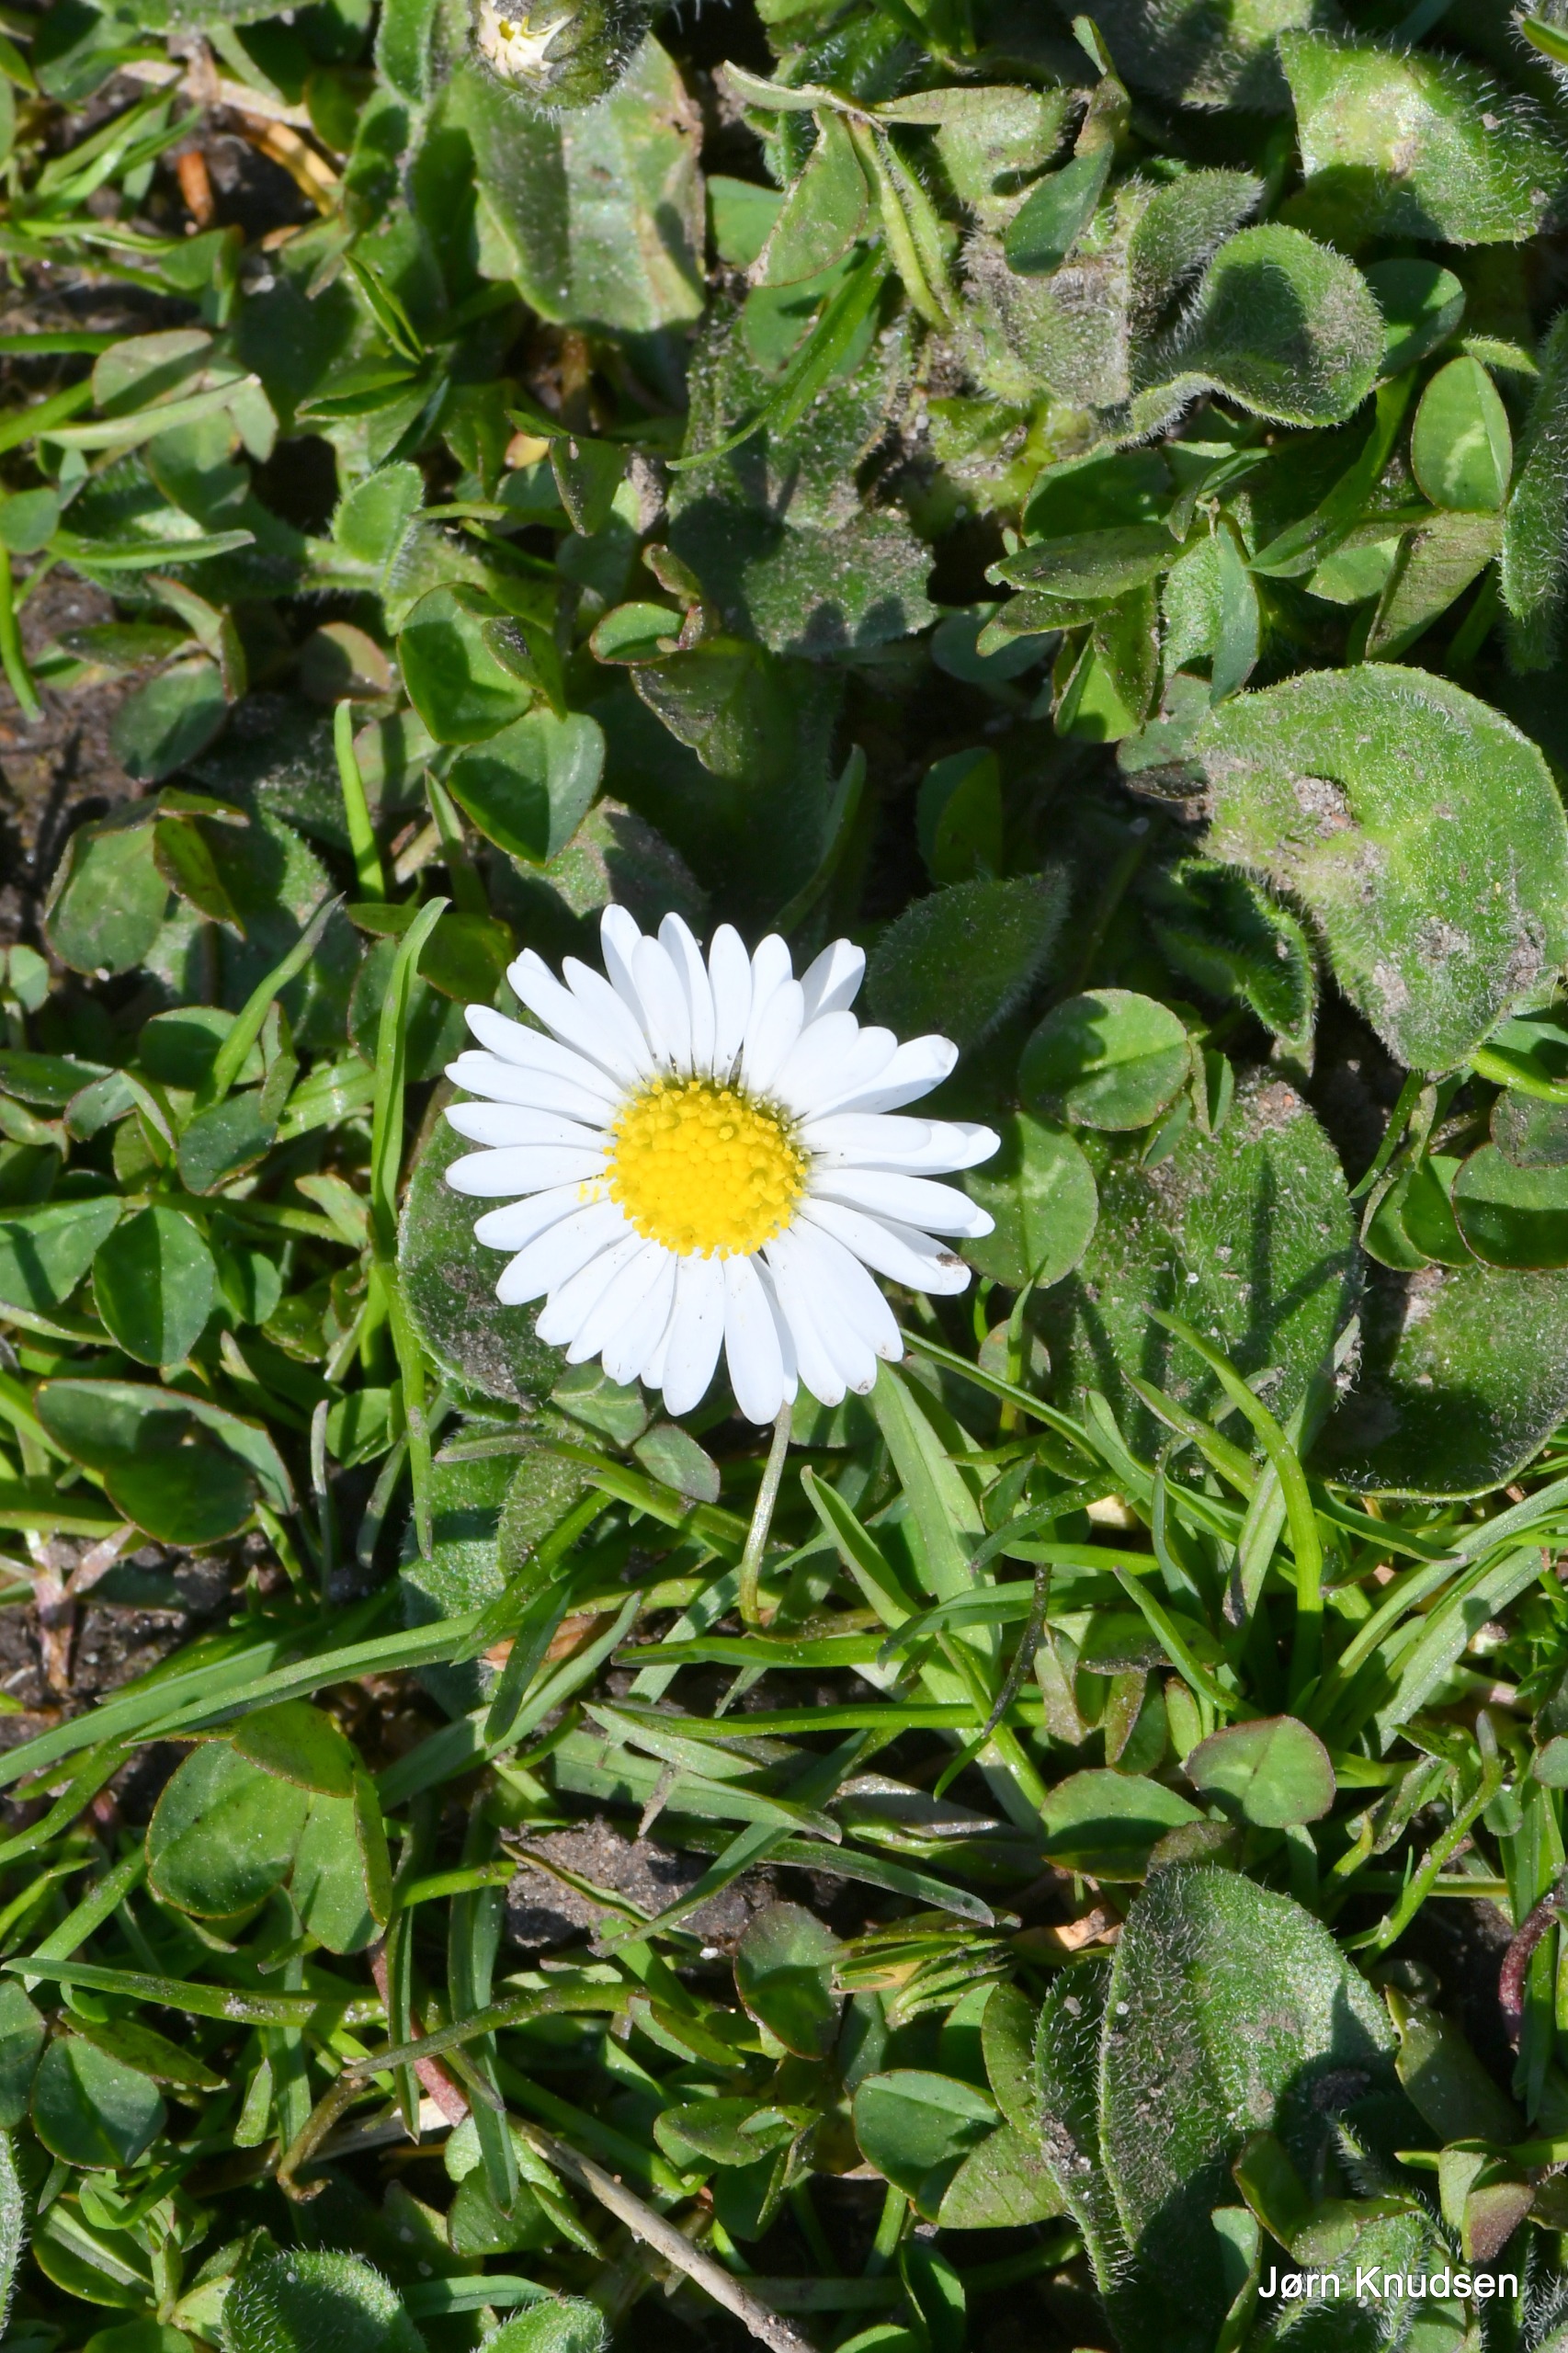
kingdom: Plantae
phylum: Tracheophyta
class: Magnoliopsida
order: Asterales
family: Asteraceae
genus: Bellis
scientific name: Bellis perennis
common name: Tusindfryd
